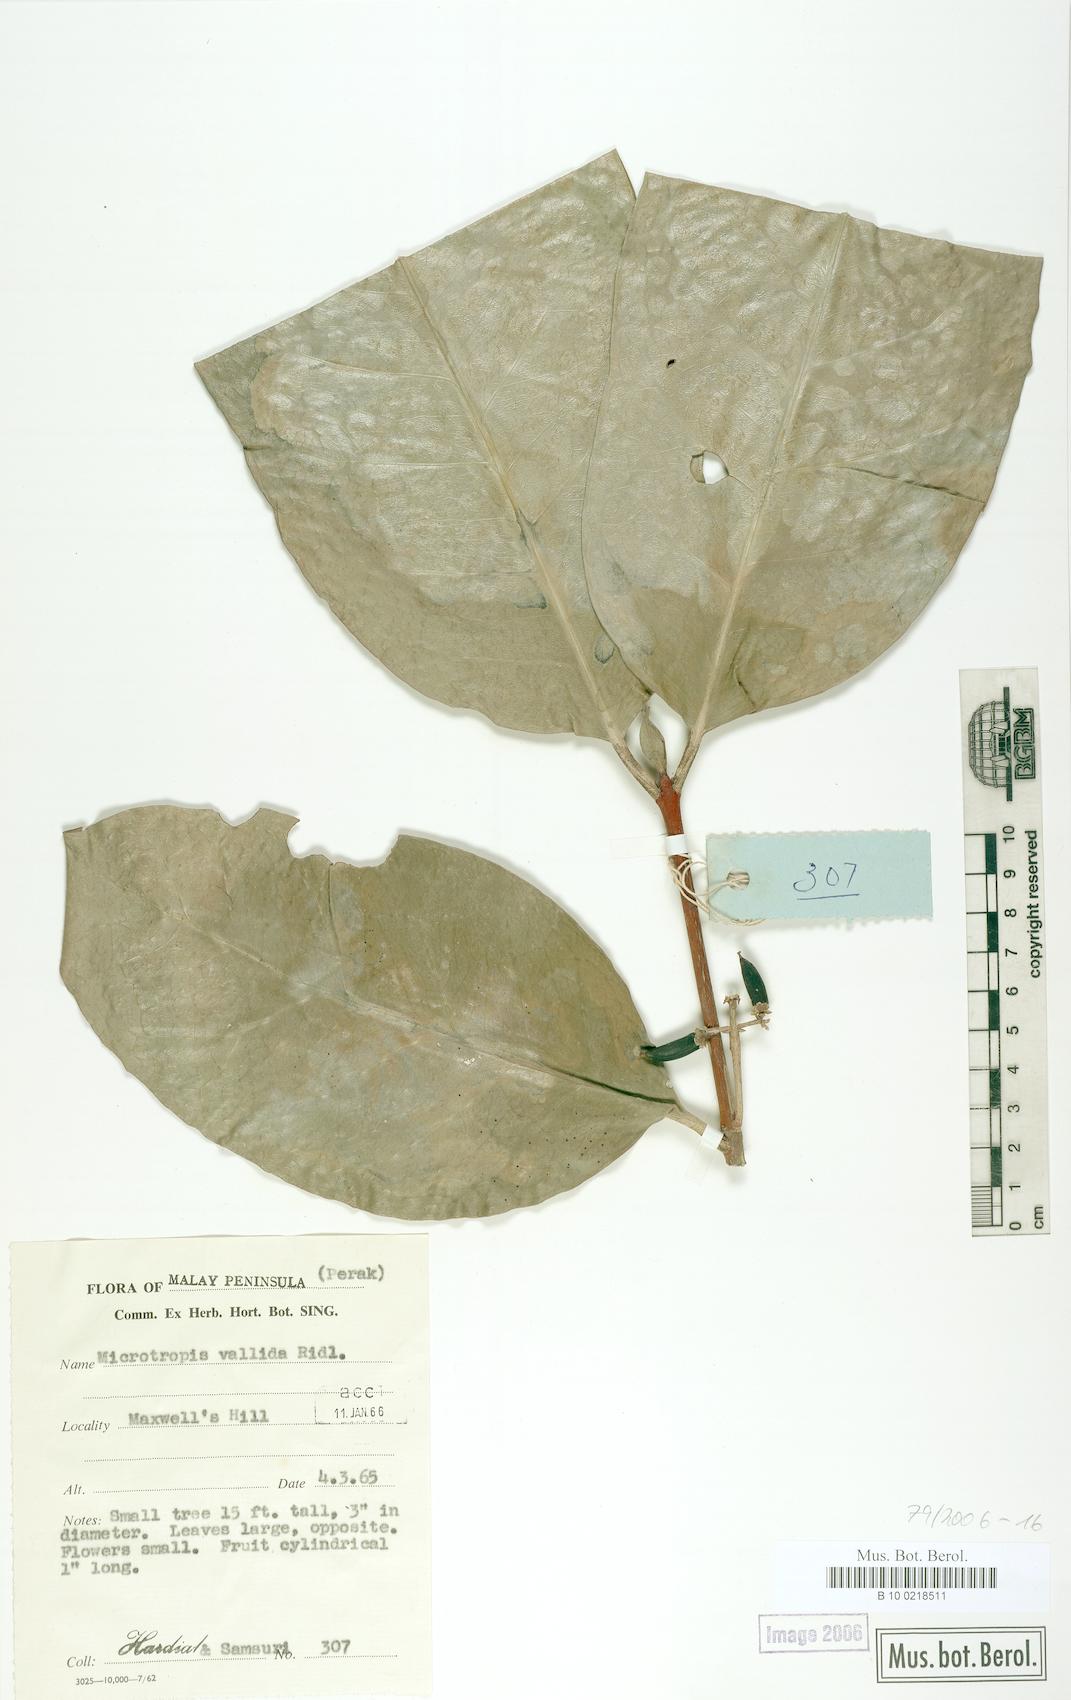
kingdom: Plantae
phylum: Tracheophyta
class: Magnoliopsida
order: Celastrales
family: Celastraceae
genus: Microtropis
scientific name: Microtropis valida
